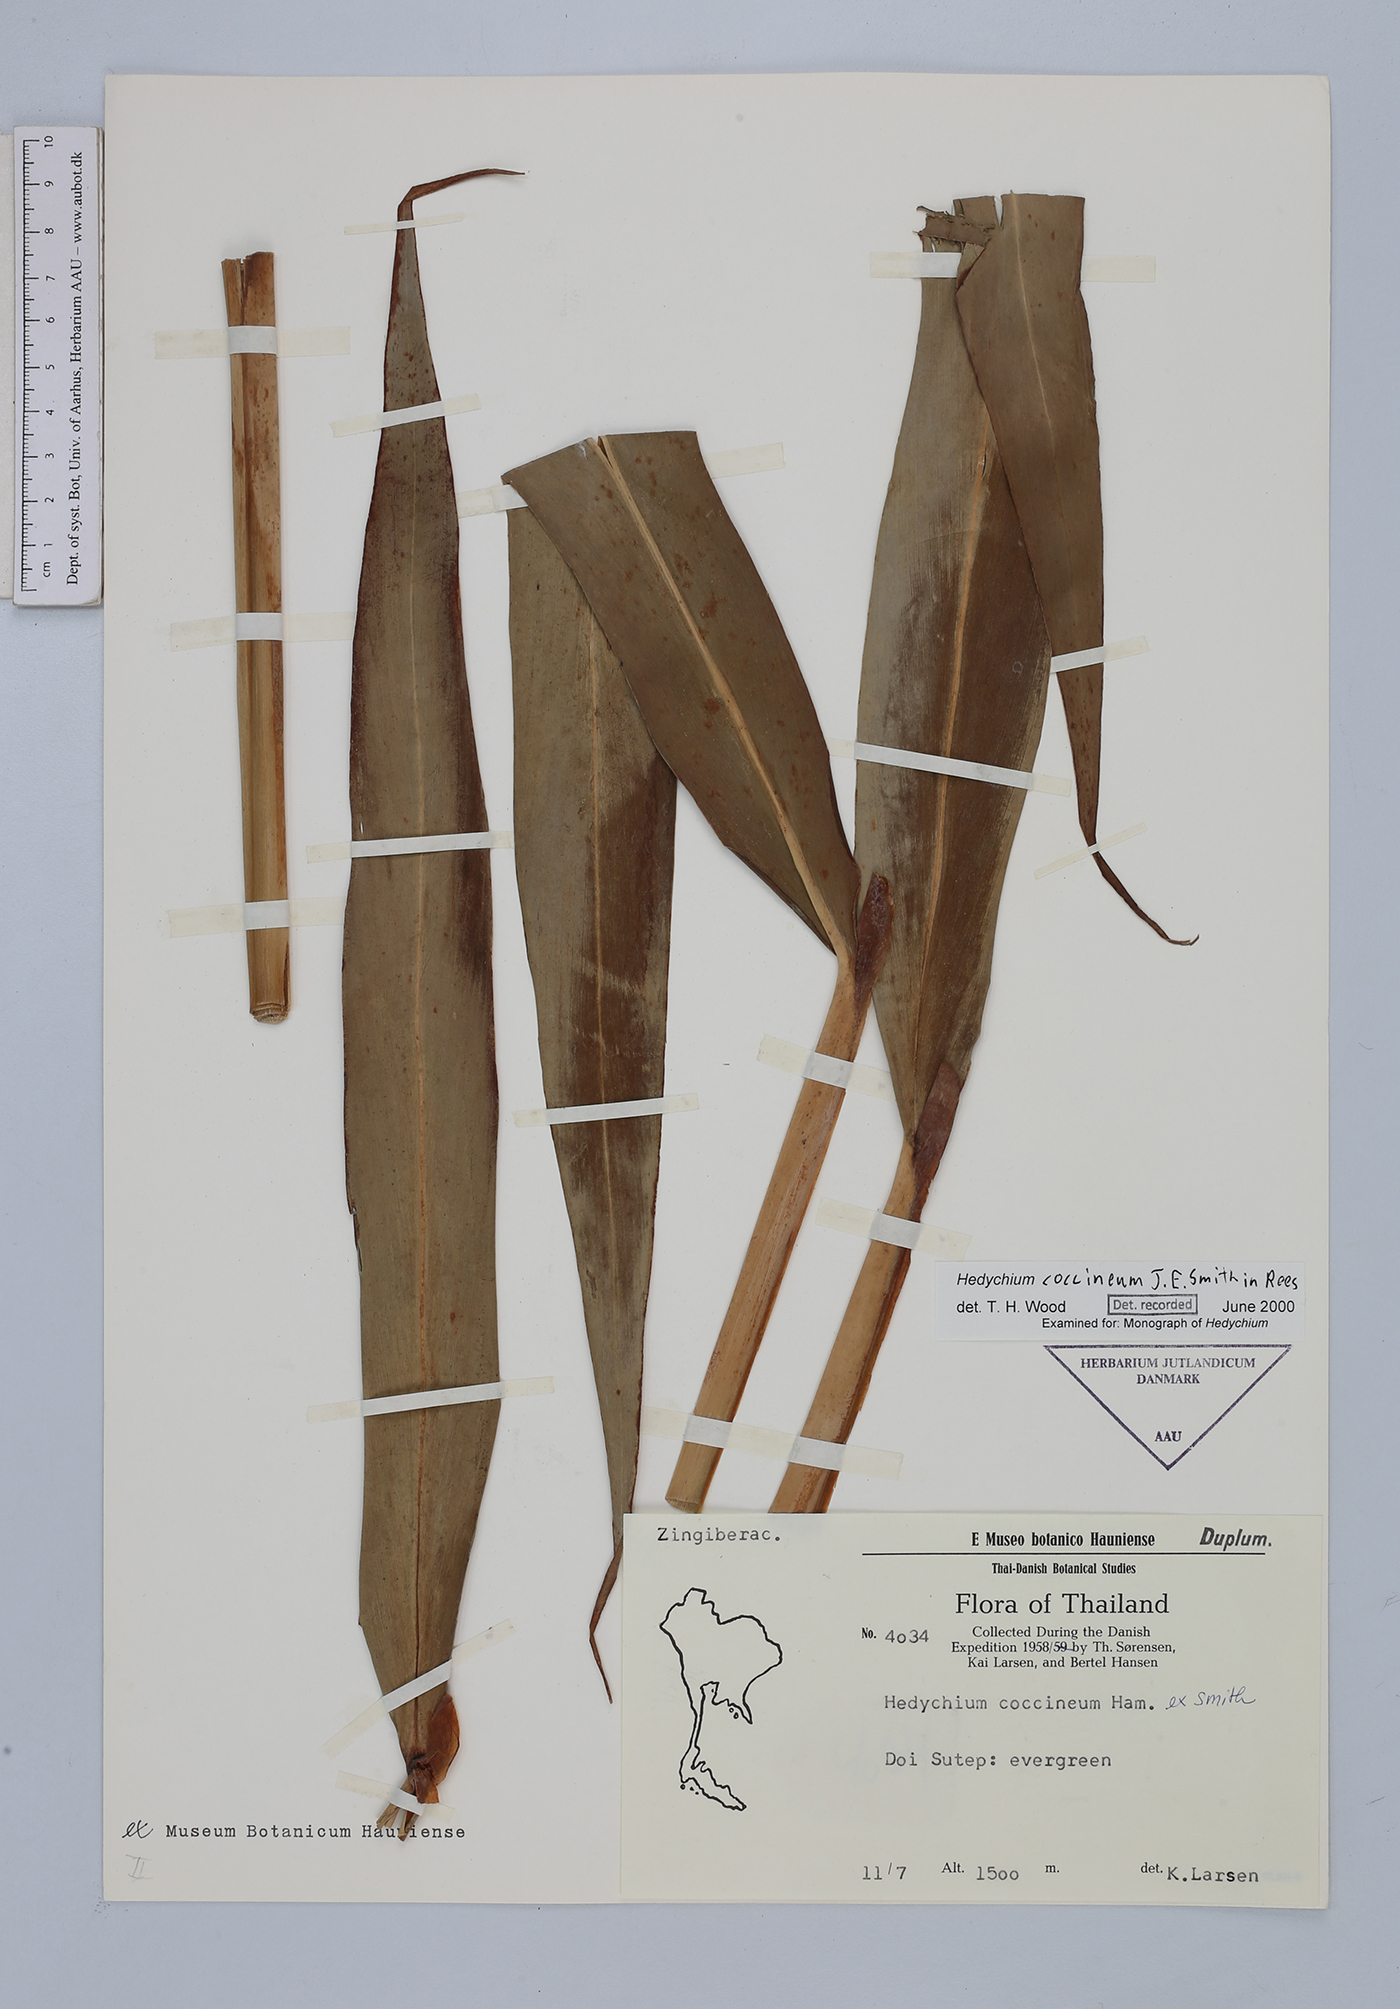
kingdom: Plantae
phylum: Tracheophyta
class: Liliopsida
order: Zingiberales
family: Zingiberaceae
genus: Hedychium
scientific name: Hedychium coccineum
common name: Red ginger-lily
